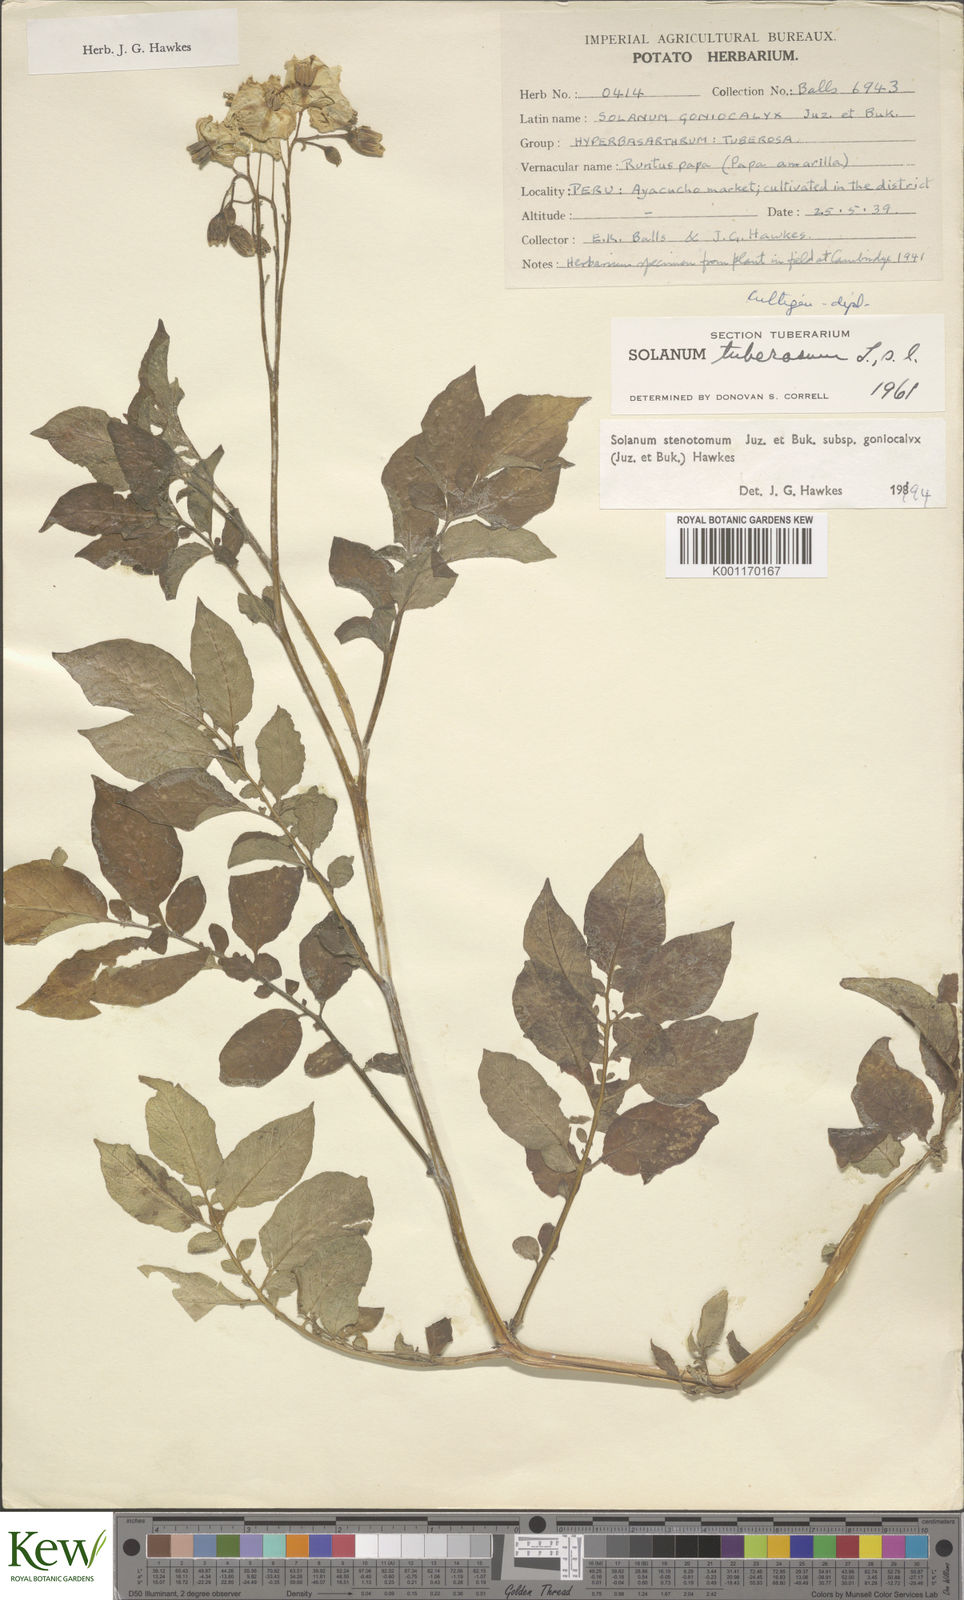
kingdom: Plantae
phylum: Tracheophyta
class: Magnoliopsida
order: Solanales
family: Solanaceae
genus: Solanum
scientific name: Solanum tuberosum
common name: Potato
